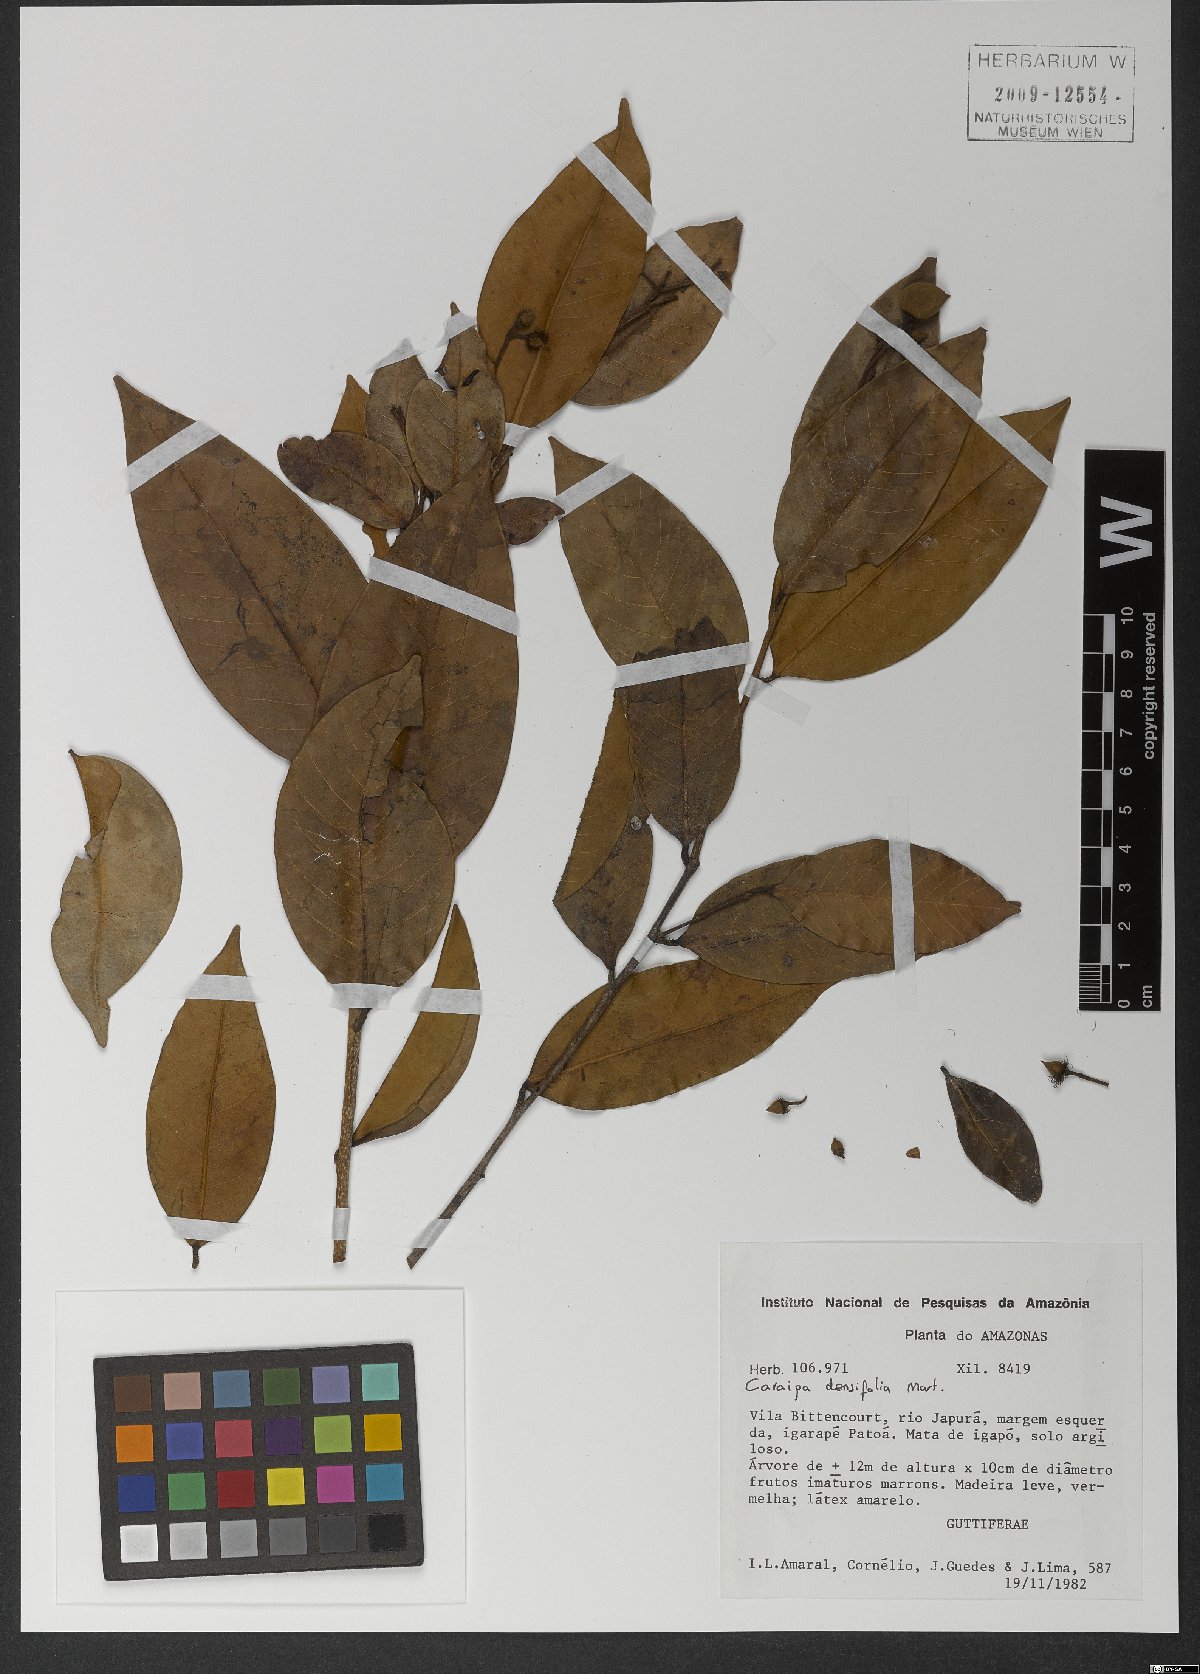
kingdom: Plantae
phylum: Tracheophyta
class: Magnoliopsida
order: Malpighiales
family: Calophyllaceae
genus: Caraipa
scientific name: Caraipa densifolia
